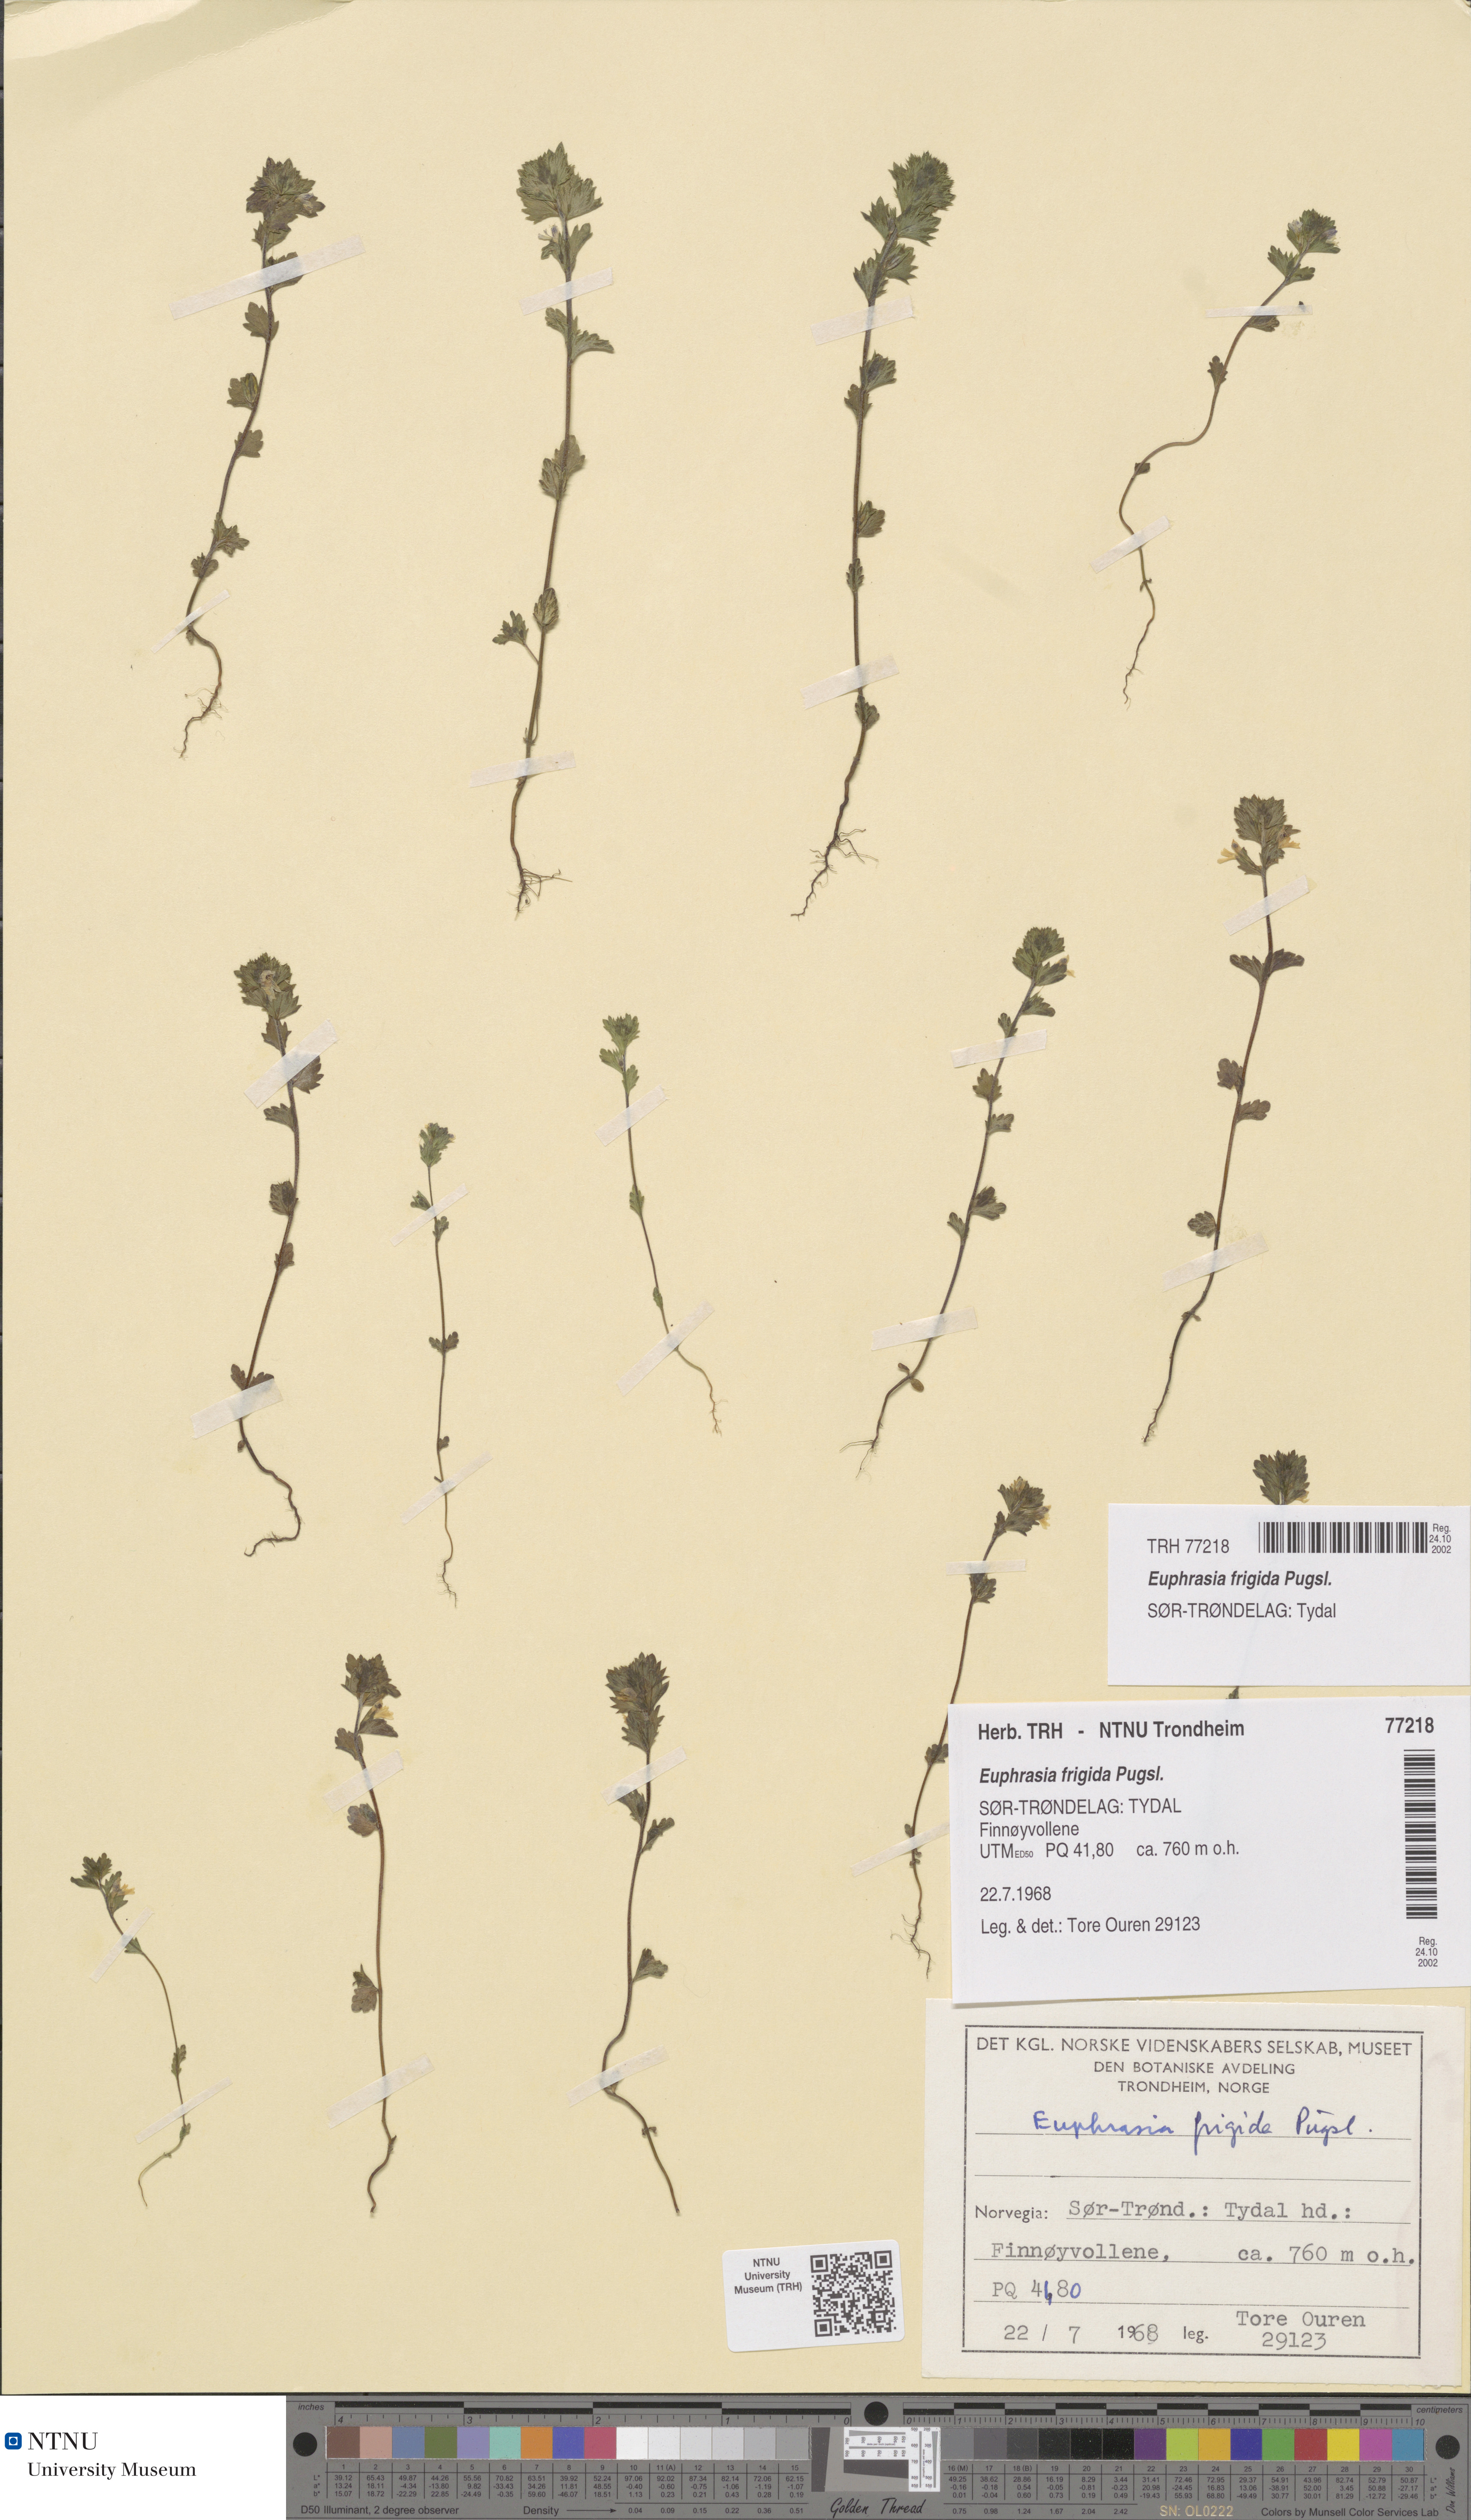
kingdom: Plantae
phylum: Tracheophyta
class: Magnoliopsida
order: Lamiales
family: Orobanchaceae
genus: Euphrasia
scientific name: Euphrasia wettsteinii
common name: Wettstein's eyebright
